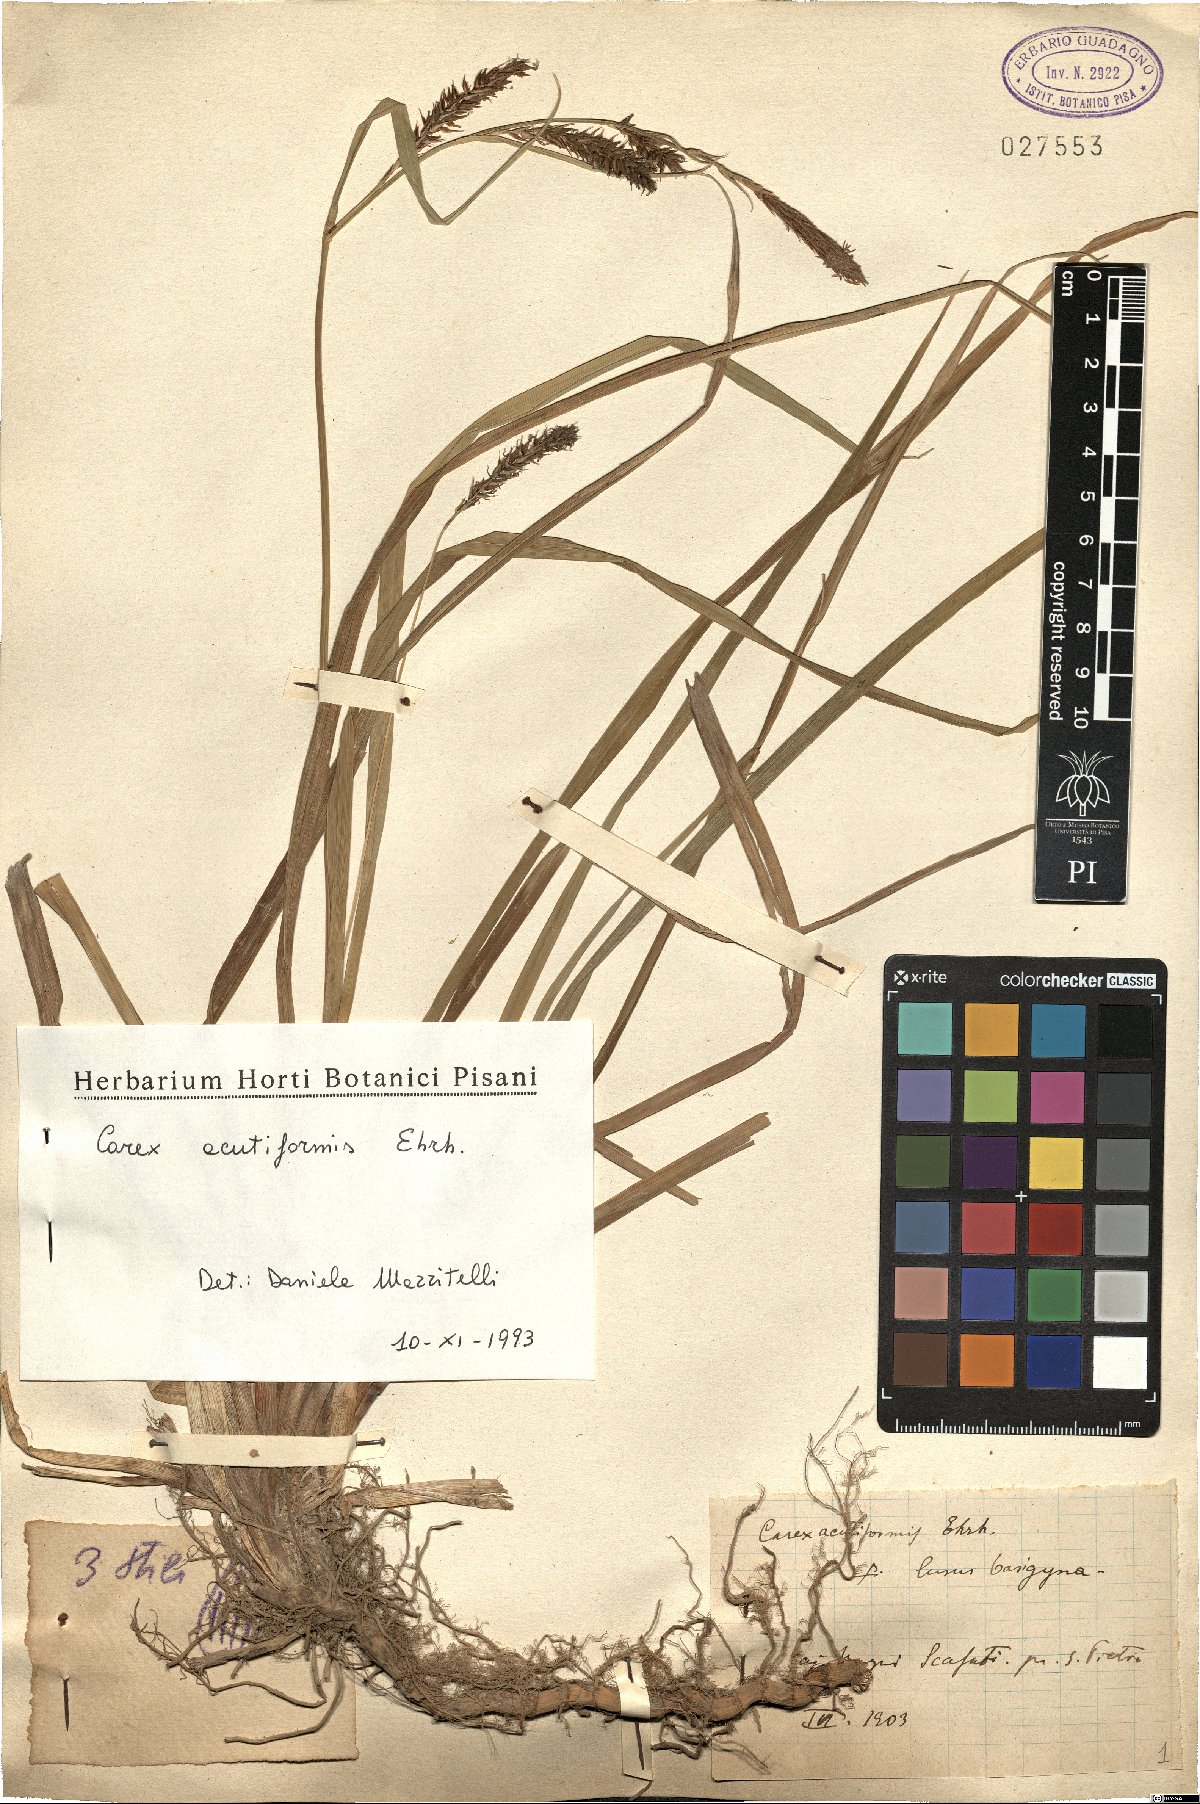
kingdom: Plantae
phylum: Tracheophyta
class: Liliopsida
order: Poales
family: Cyperaceae
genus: Carex
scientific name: Carex acutiformis
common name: Lesser pond-sedge
